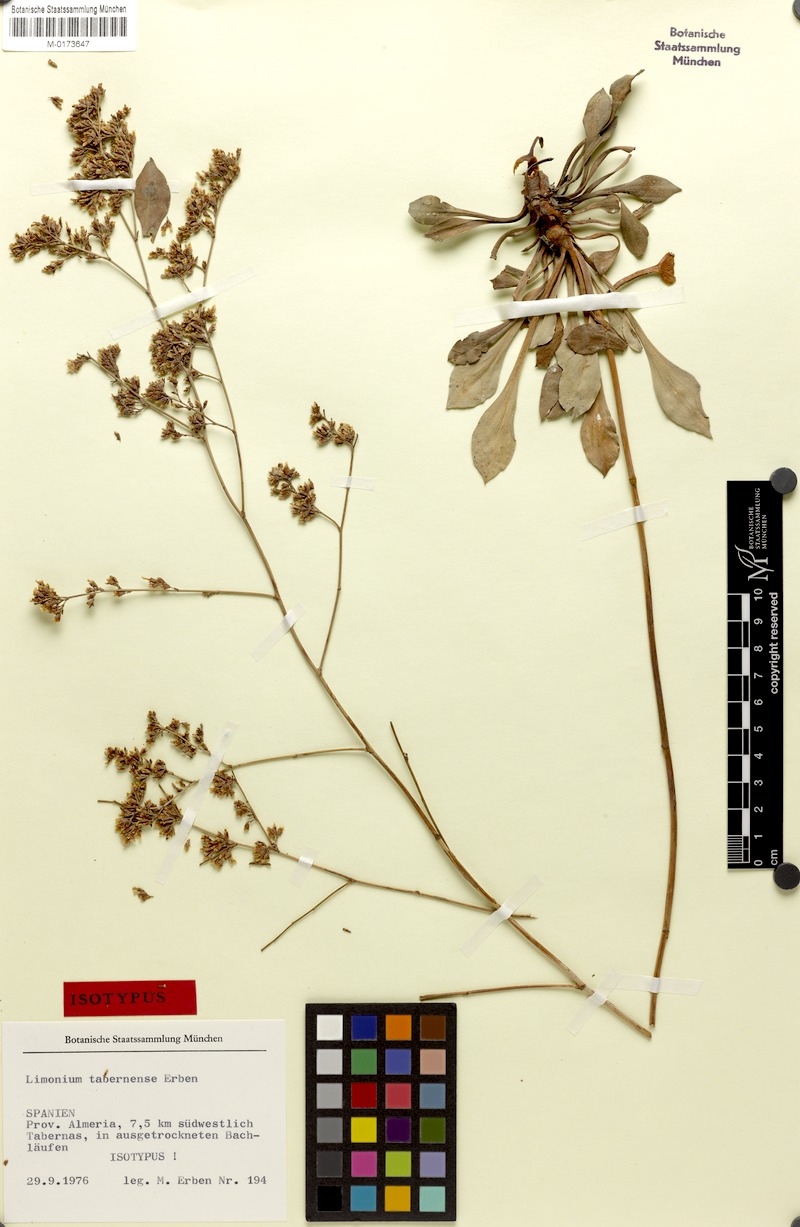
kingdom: Plantae
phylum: Tracheophyta
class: Magnoliopsida
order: Caryophyllales
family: Plumbaginaceae
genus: Limonium
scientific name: Limonium tabernense
